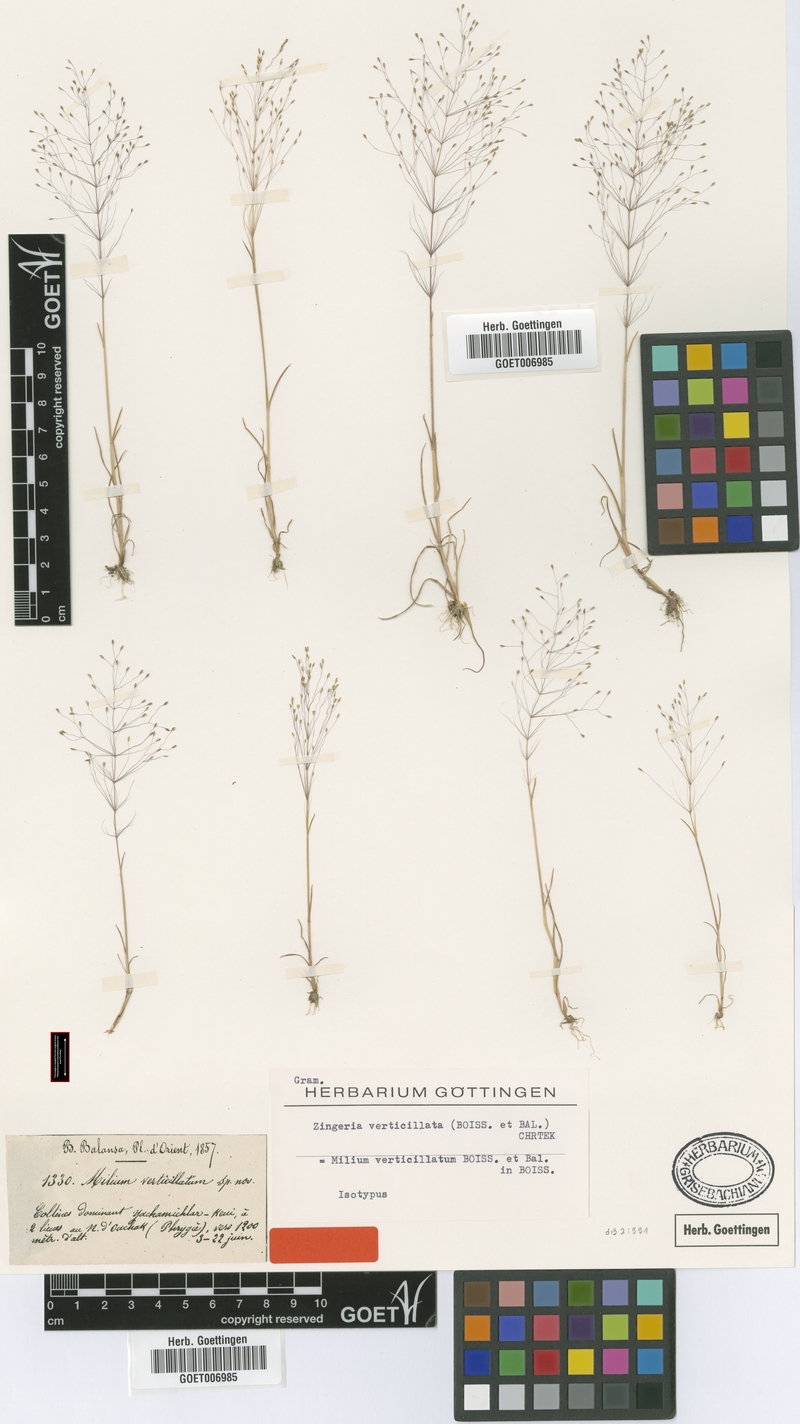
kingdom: Plantae
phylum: Tracheophyta
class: Liliopsida
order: Poales
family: Poaceae
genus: Colpodium
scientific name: Colpodium verticillatum
